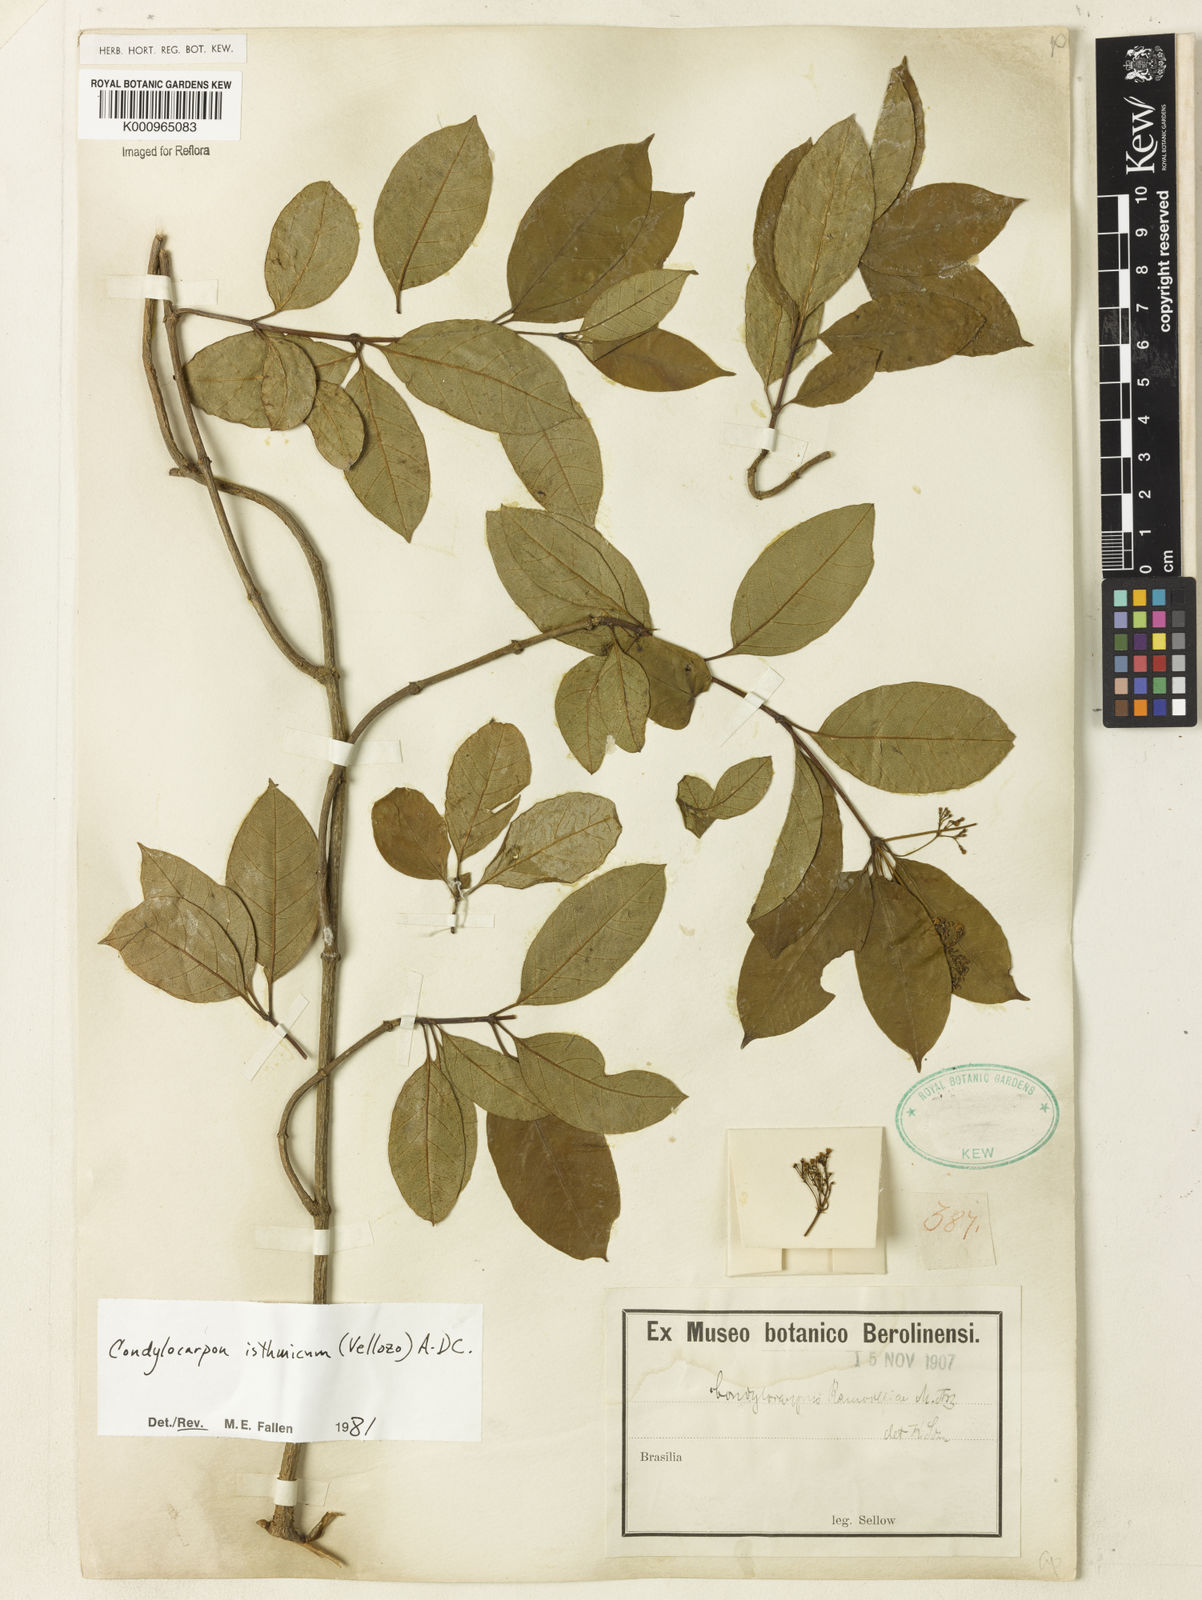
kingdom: Plantae
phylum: Tracheophyta
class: Magnoliopsida
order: Gentianales
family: Apocynaceae
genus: Condylocarpon
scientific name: Condylocarpon isthmicum
